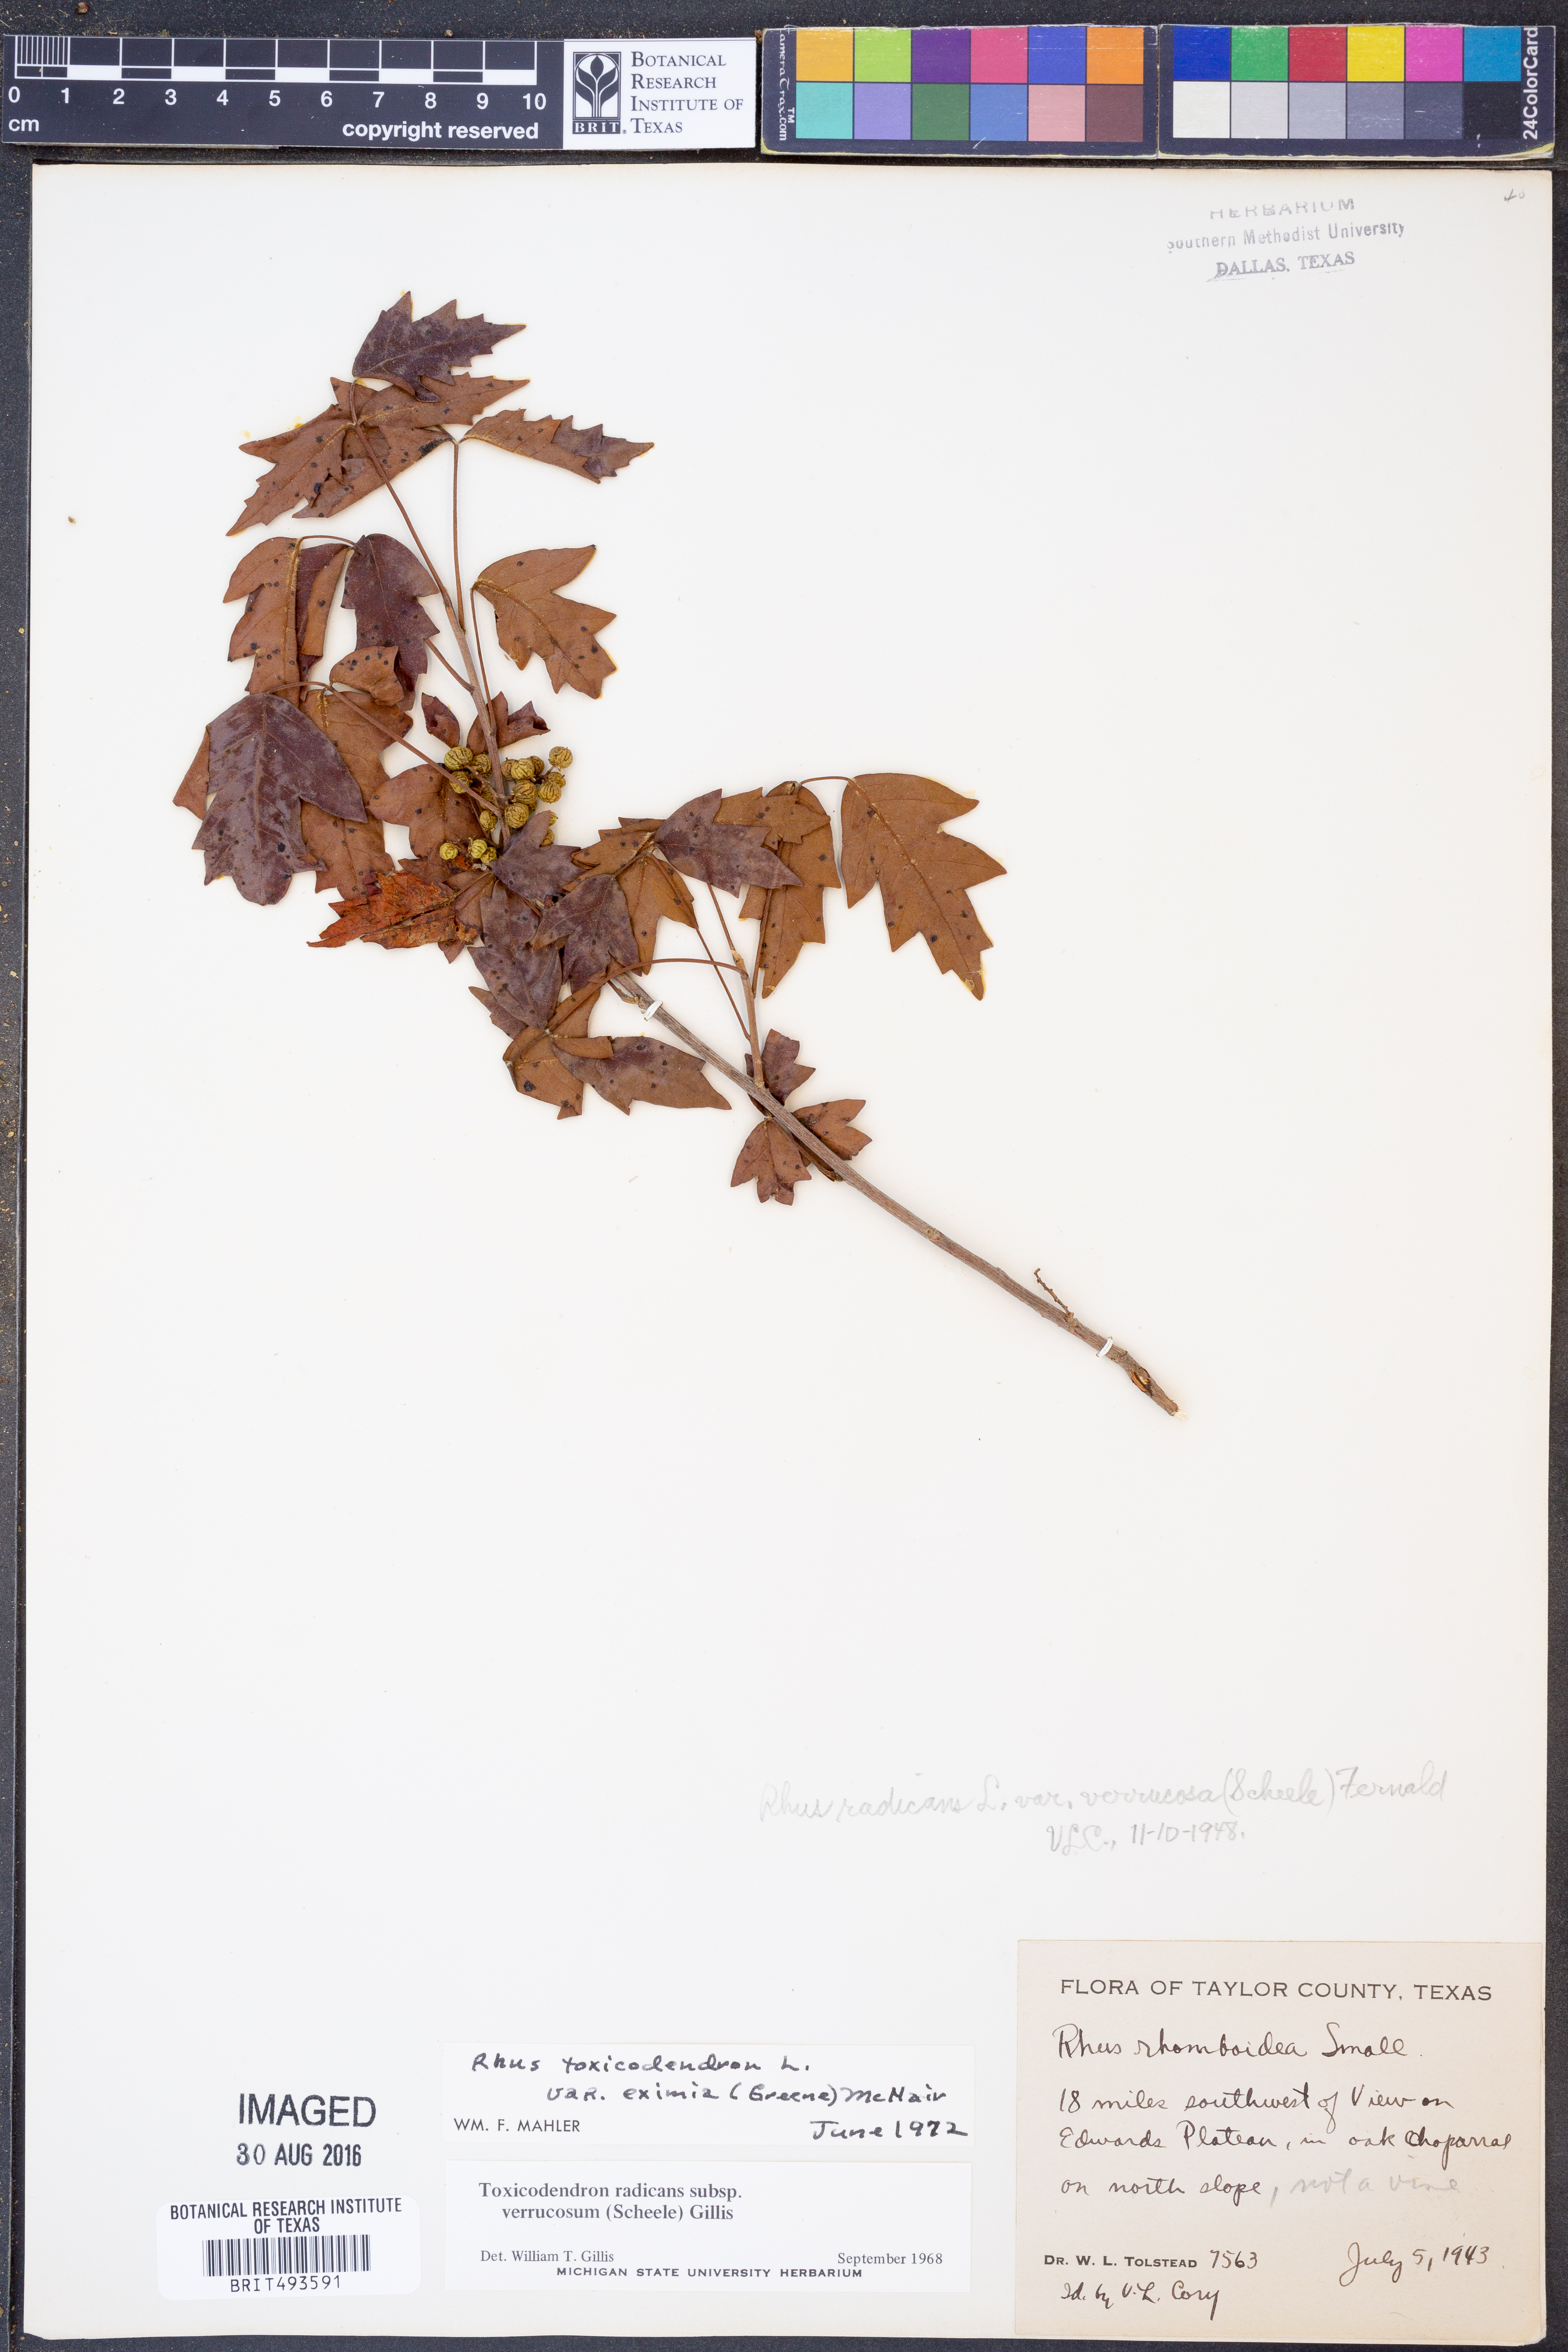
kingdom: Plantae
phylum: Tracheophyta
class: Magnoliopsida
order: Sapindales
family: Anacardiaceae
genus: Toxicodendron
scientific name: Toxicodendron radicans
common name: Poison ivy
